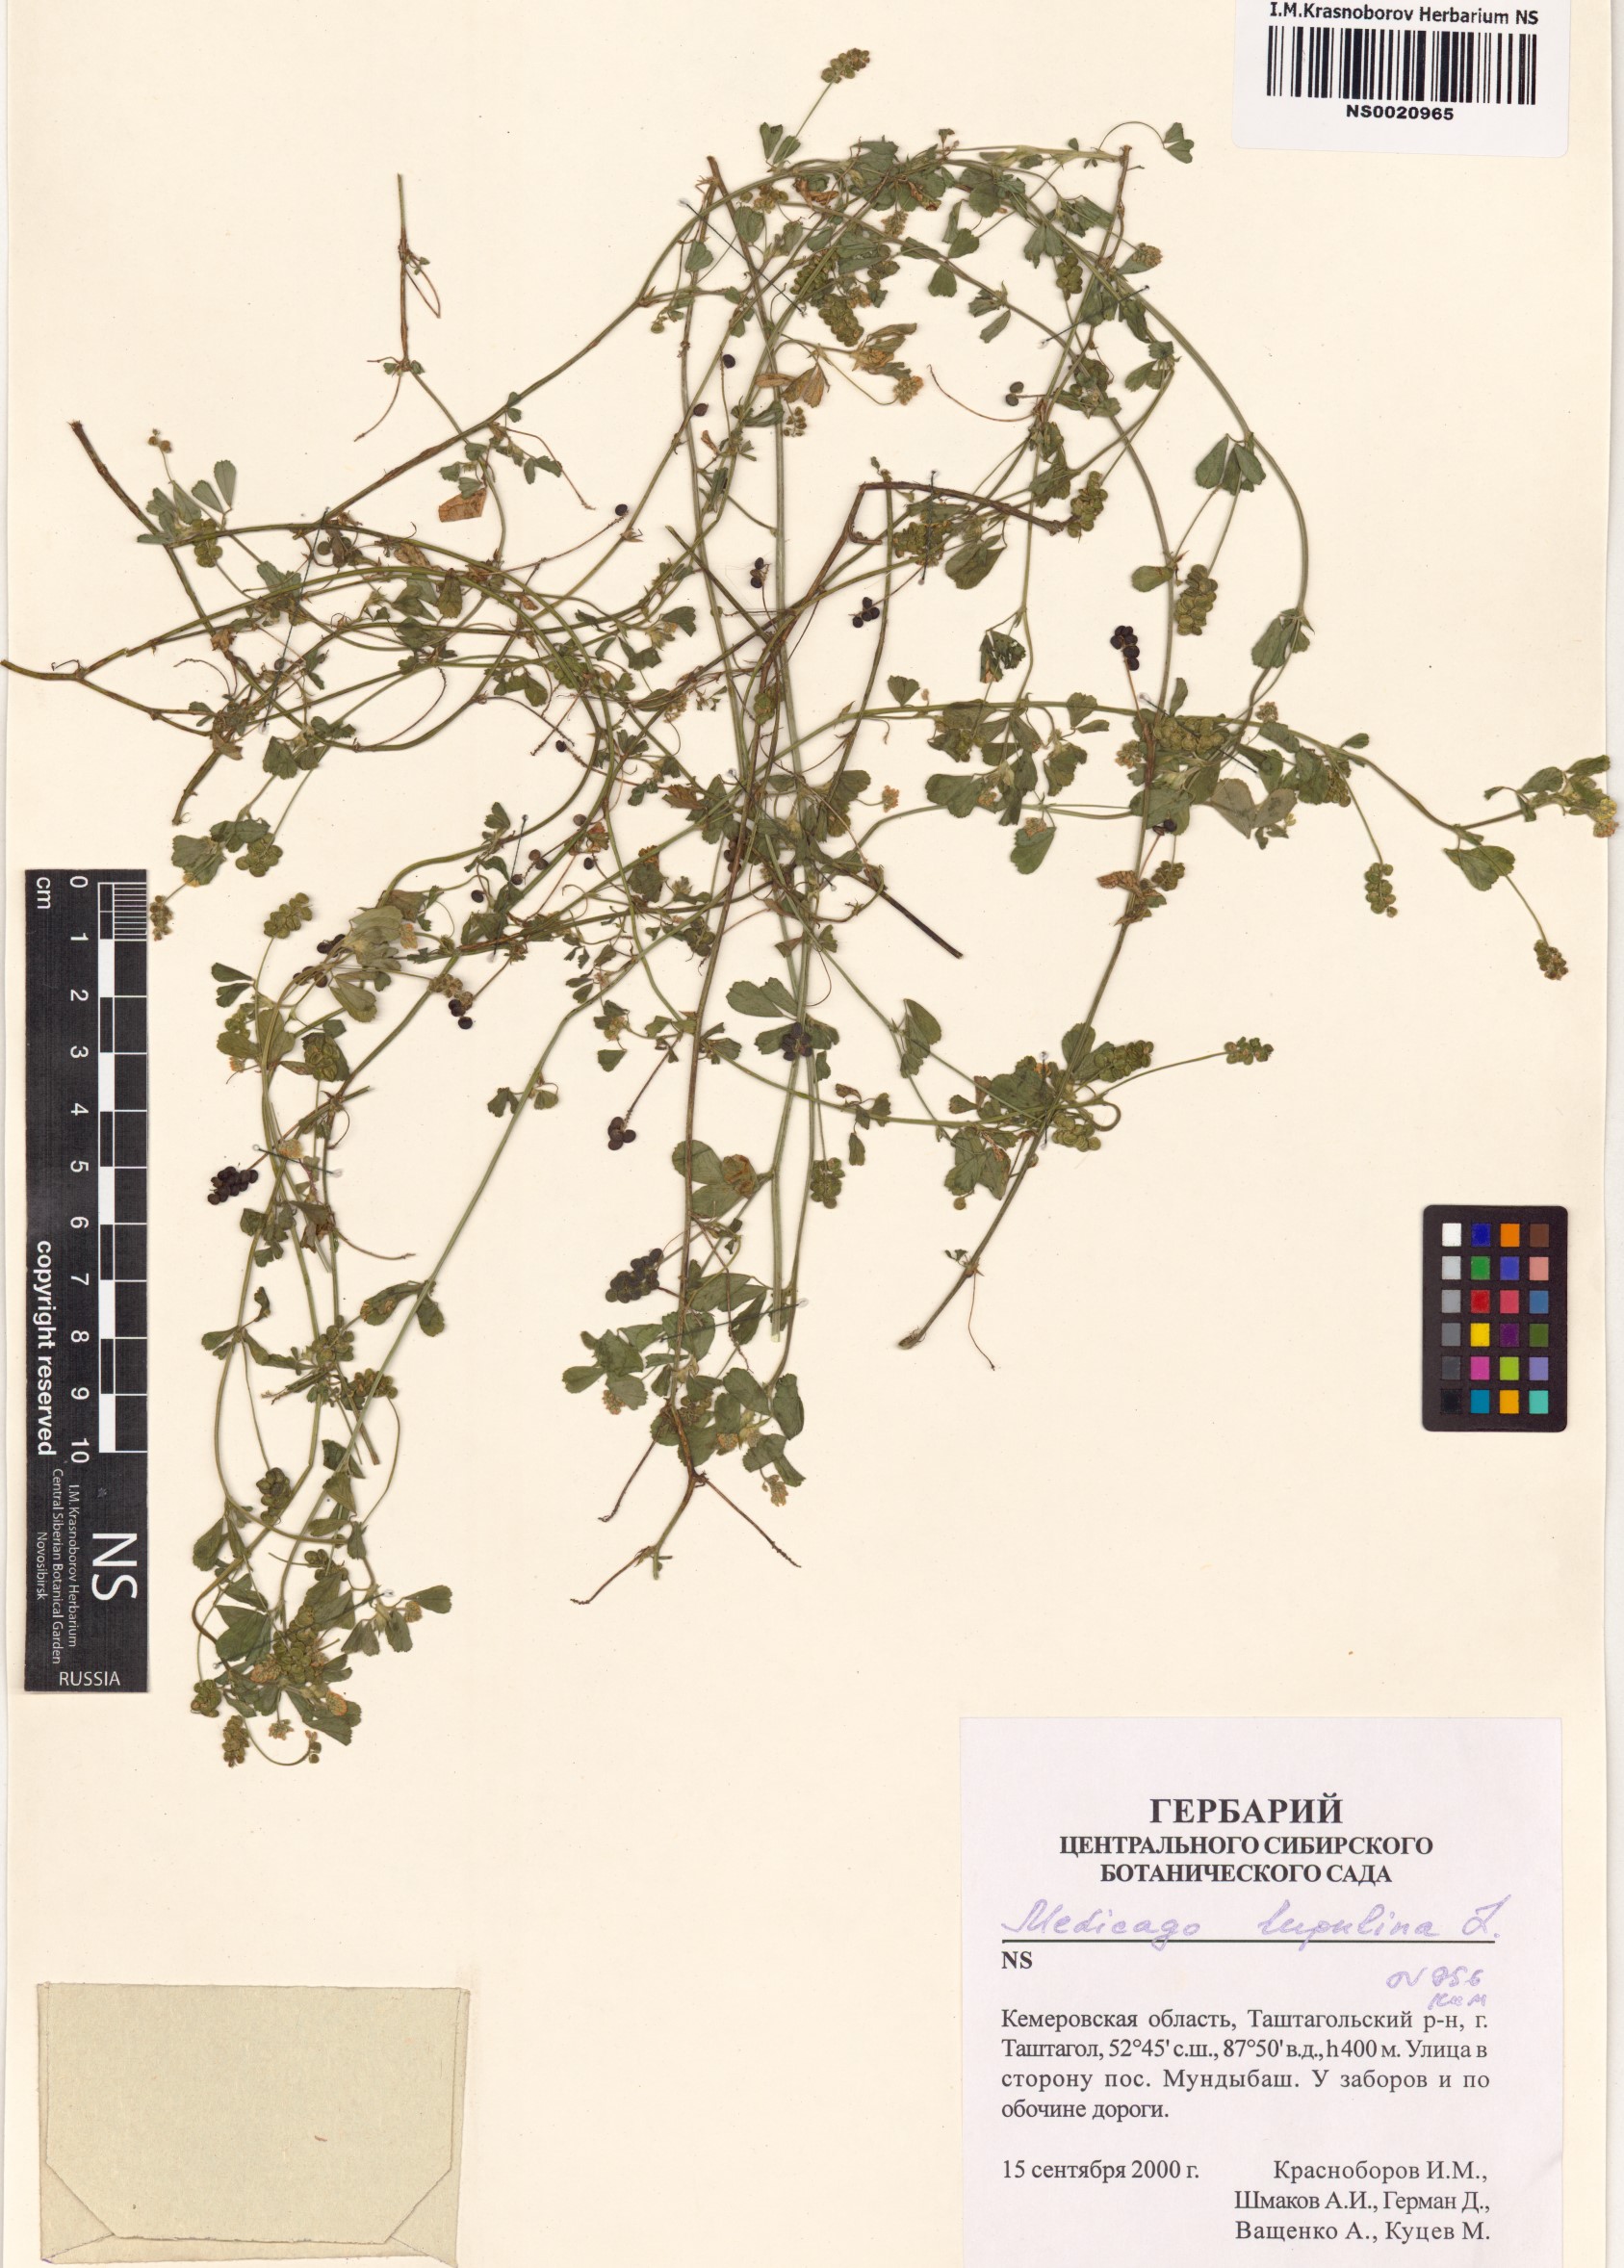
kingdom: Plantae
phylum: Tracheophyta
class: Magnoliopsida
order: Fabales
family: Fabaceae
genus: Medicago
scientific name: Medicago lupulina
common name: Black medick
